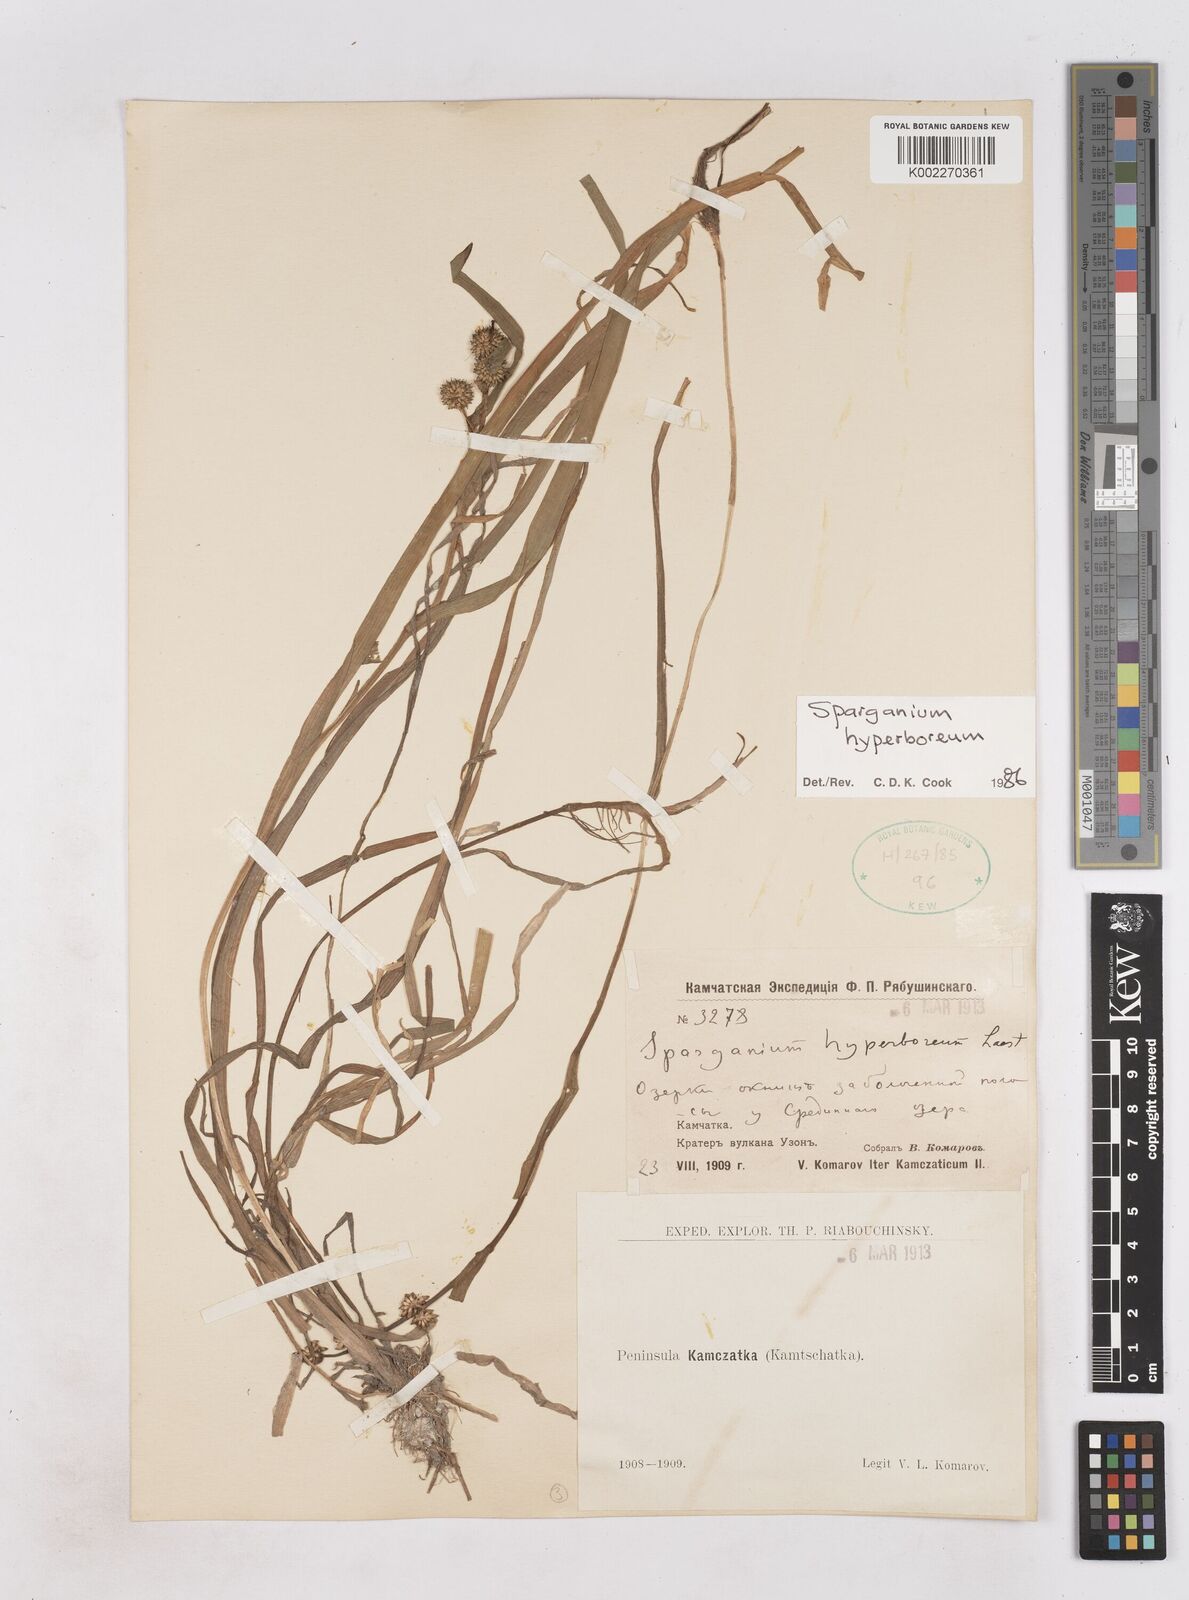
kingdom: Plantae
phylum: Tracheophyta
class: Liliopsida
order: Poales
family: Typhaceae
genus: Sparganium
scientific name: Sparganium hyperboreum
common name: Arctic burreed
